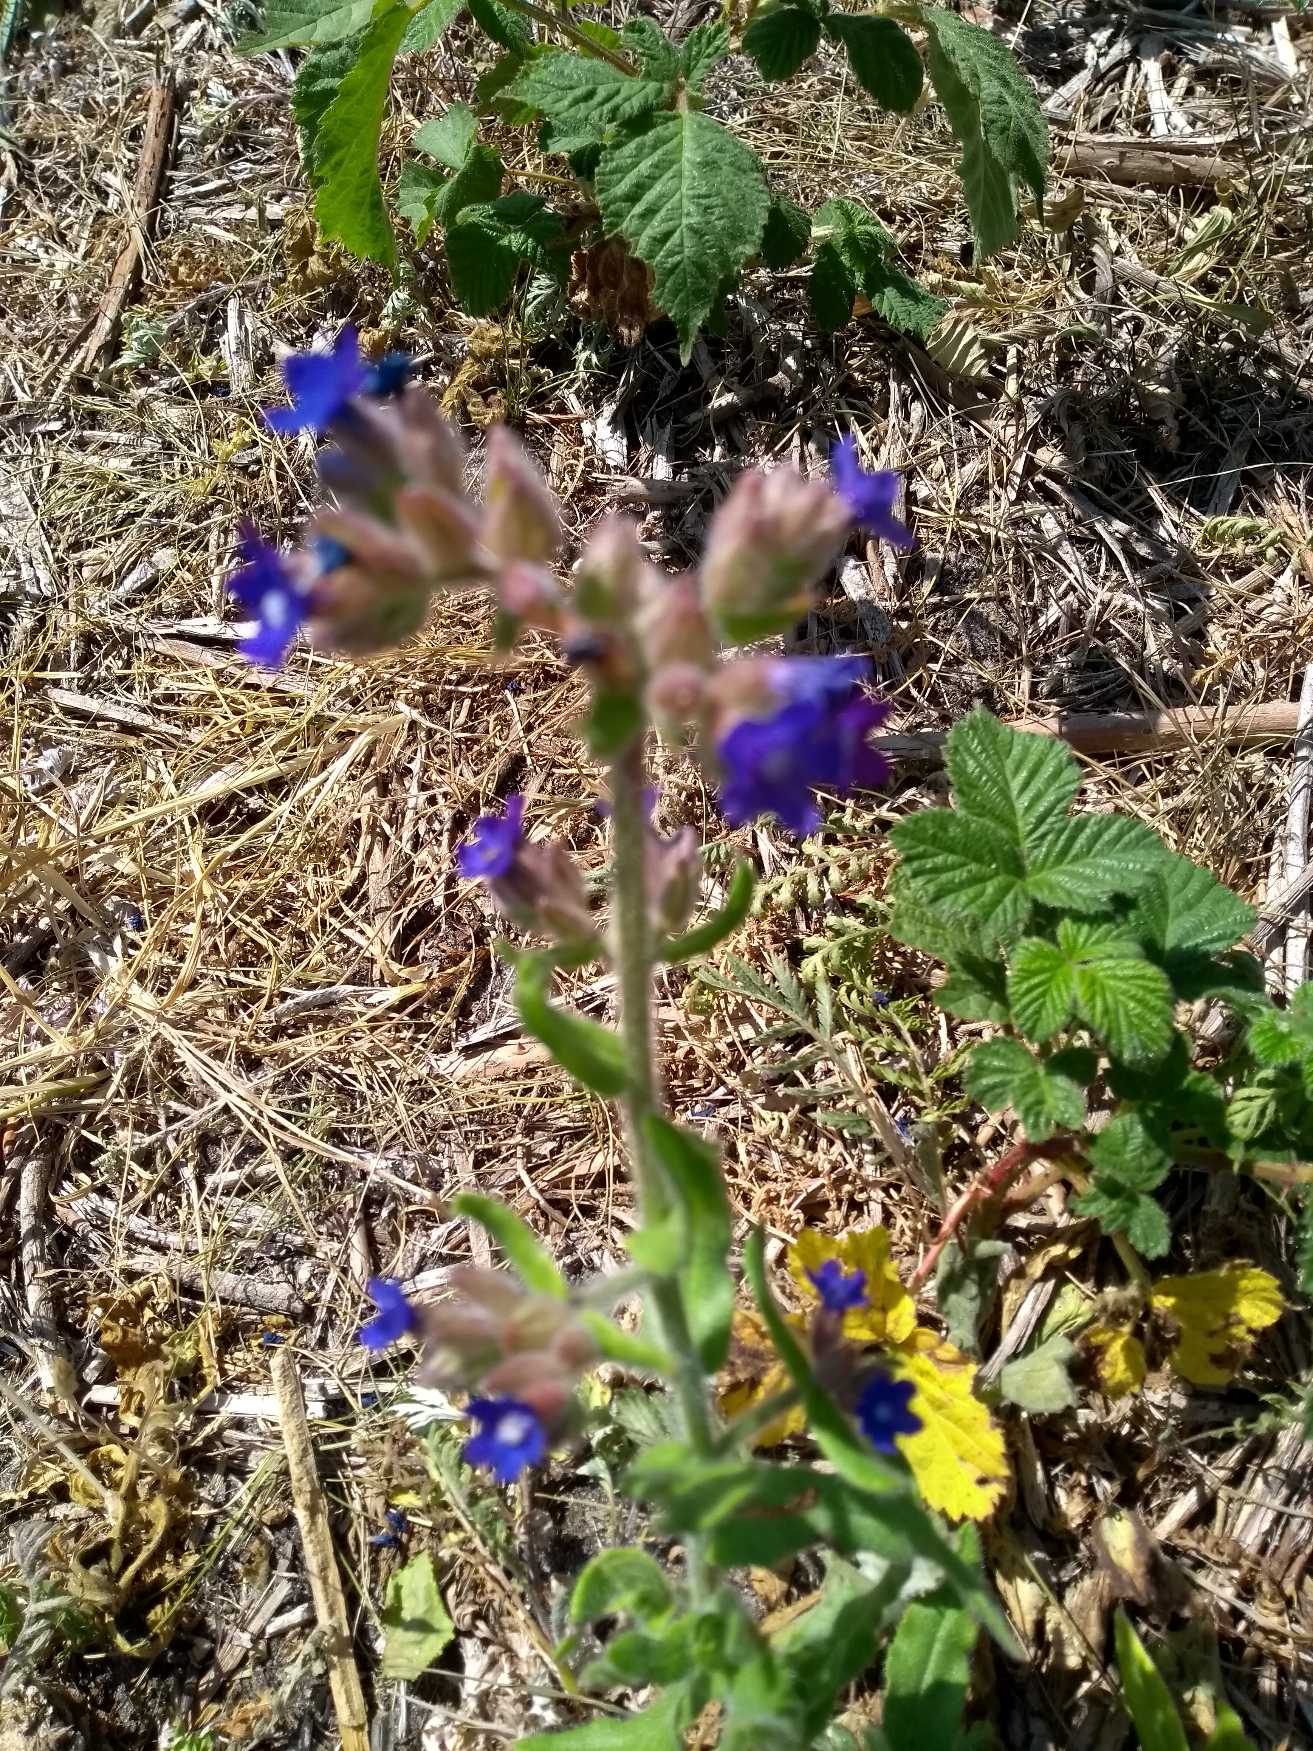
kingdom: Plantae
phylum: Tracheophyta
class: Magnoliopsida
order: Boraginales
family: Boraginaceae
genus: Anchusa
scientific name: Anchusa officinalis
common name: Læge-oksetunge
